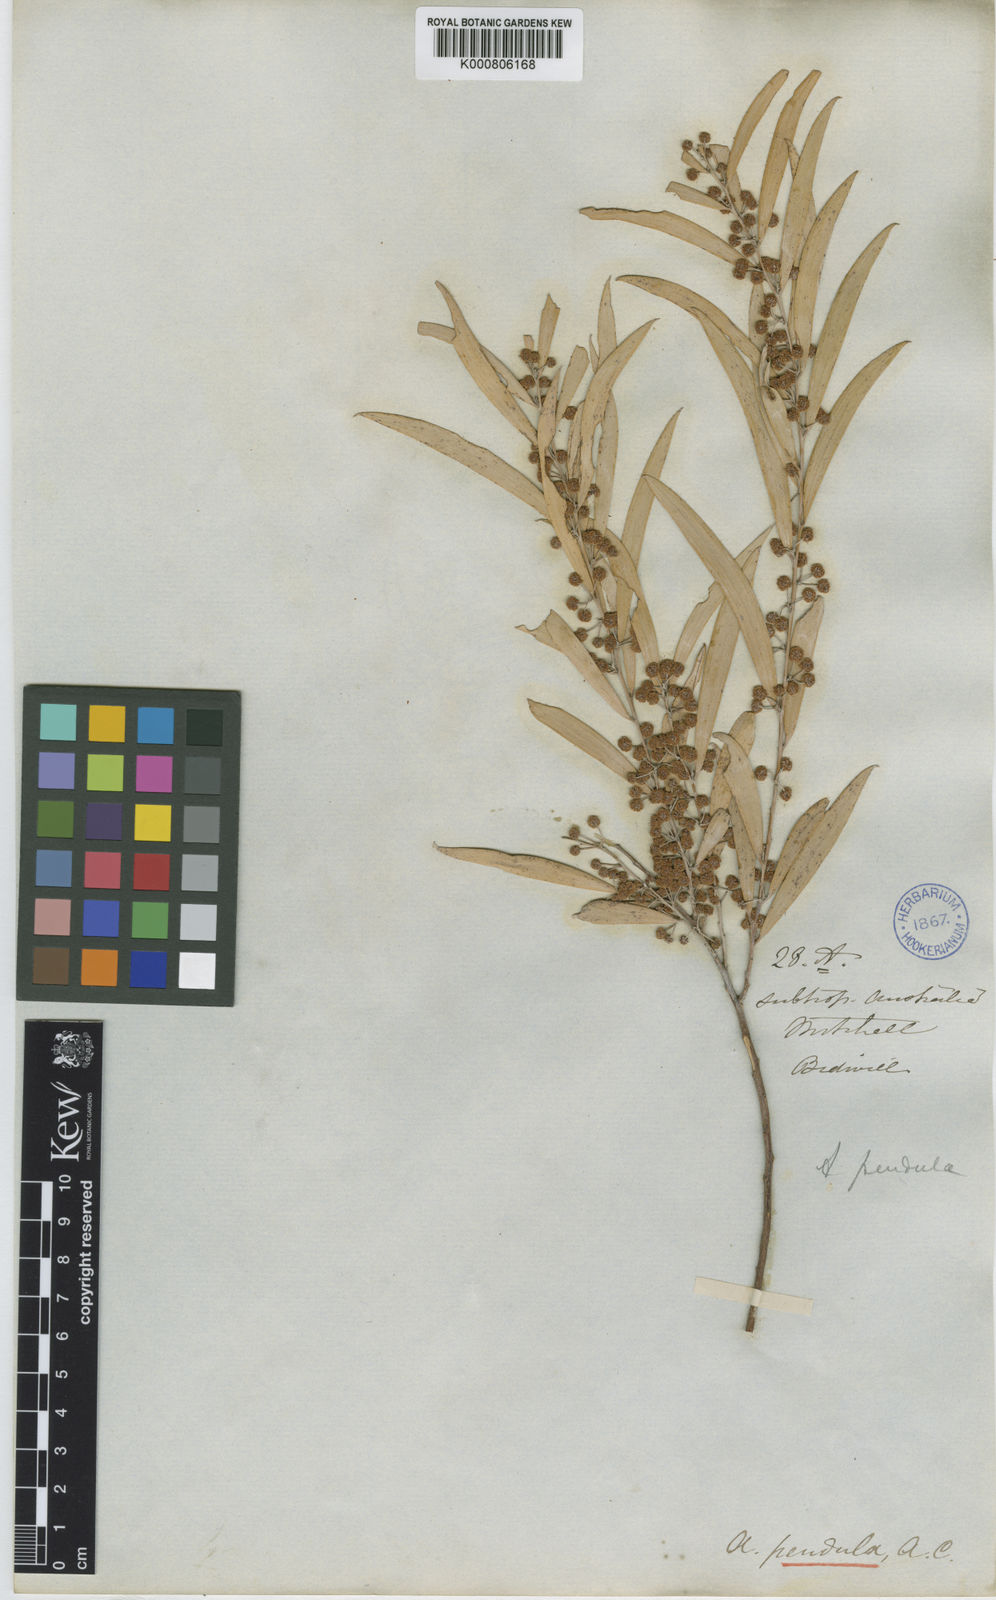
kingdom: Plantae
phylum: Tracheophyta
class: Magnoliopsida
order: Fabales
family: Fabaceae
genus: Acacia
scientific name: Acacia
